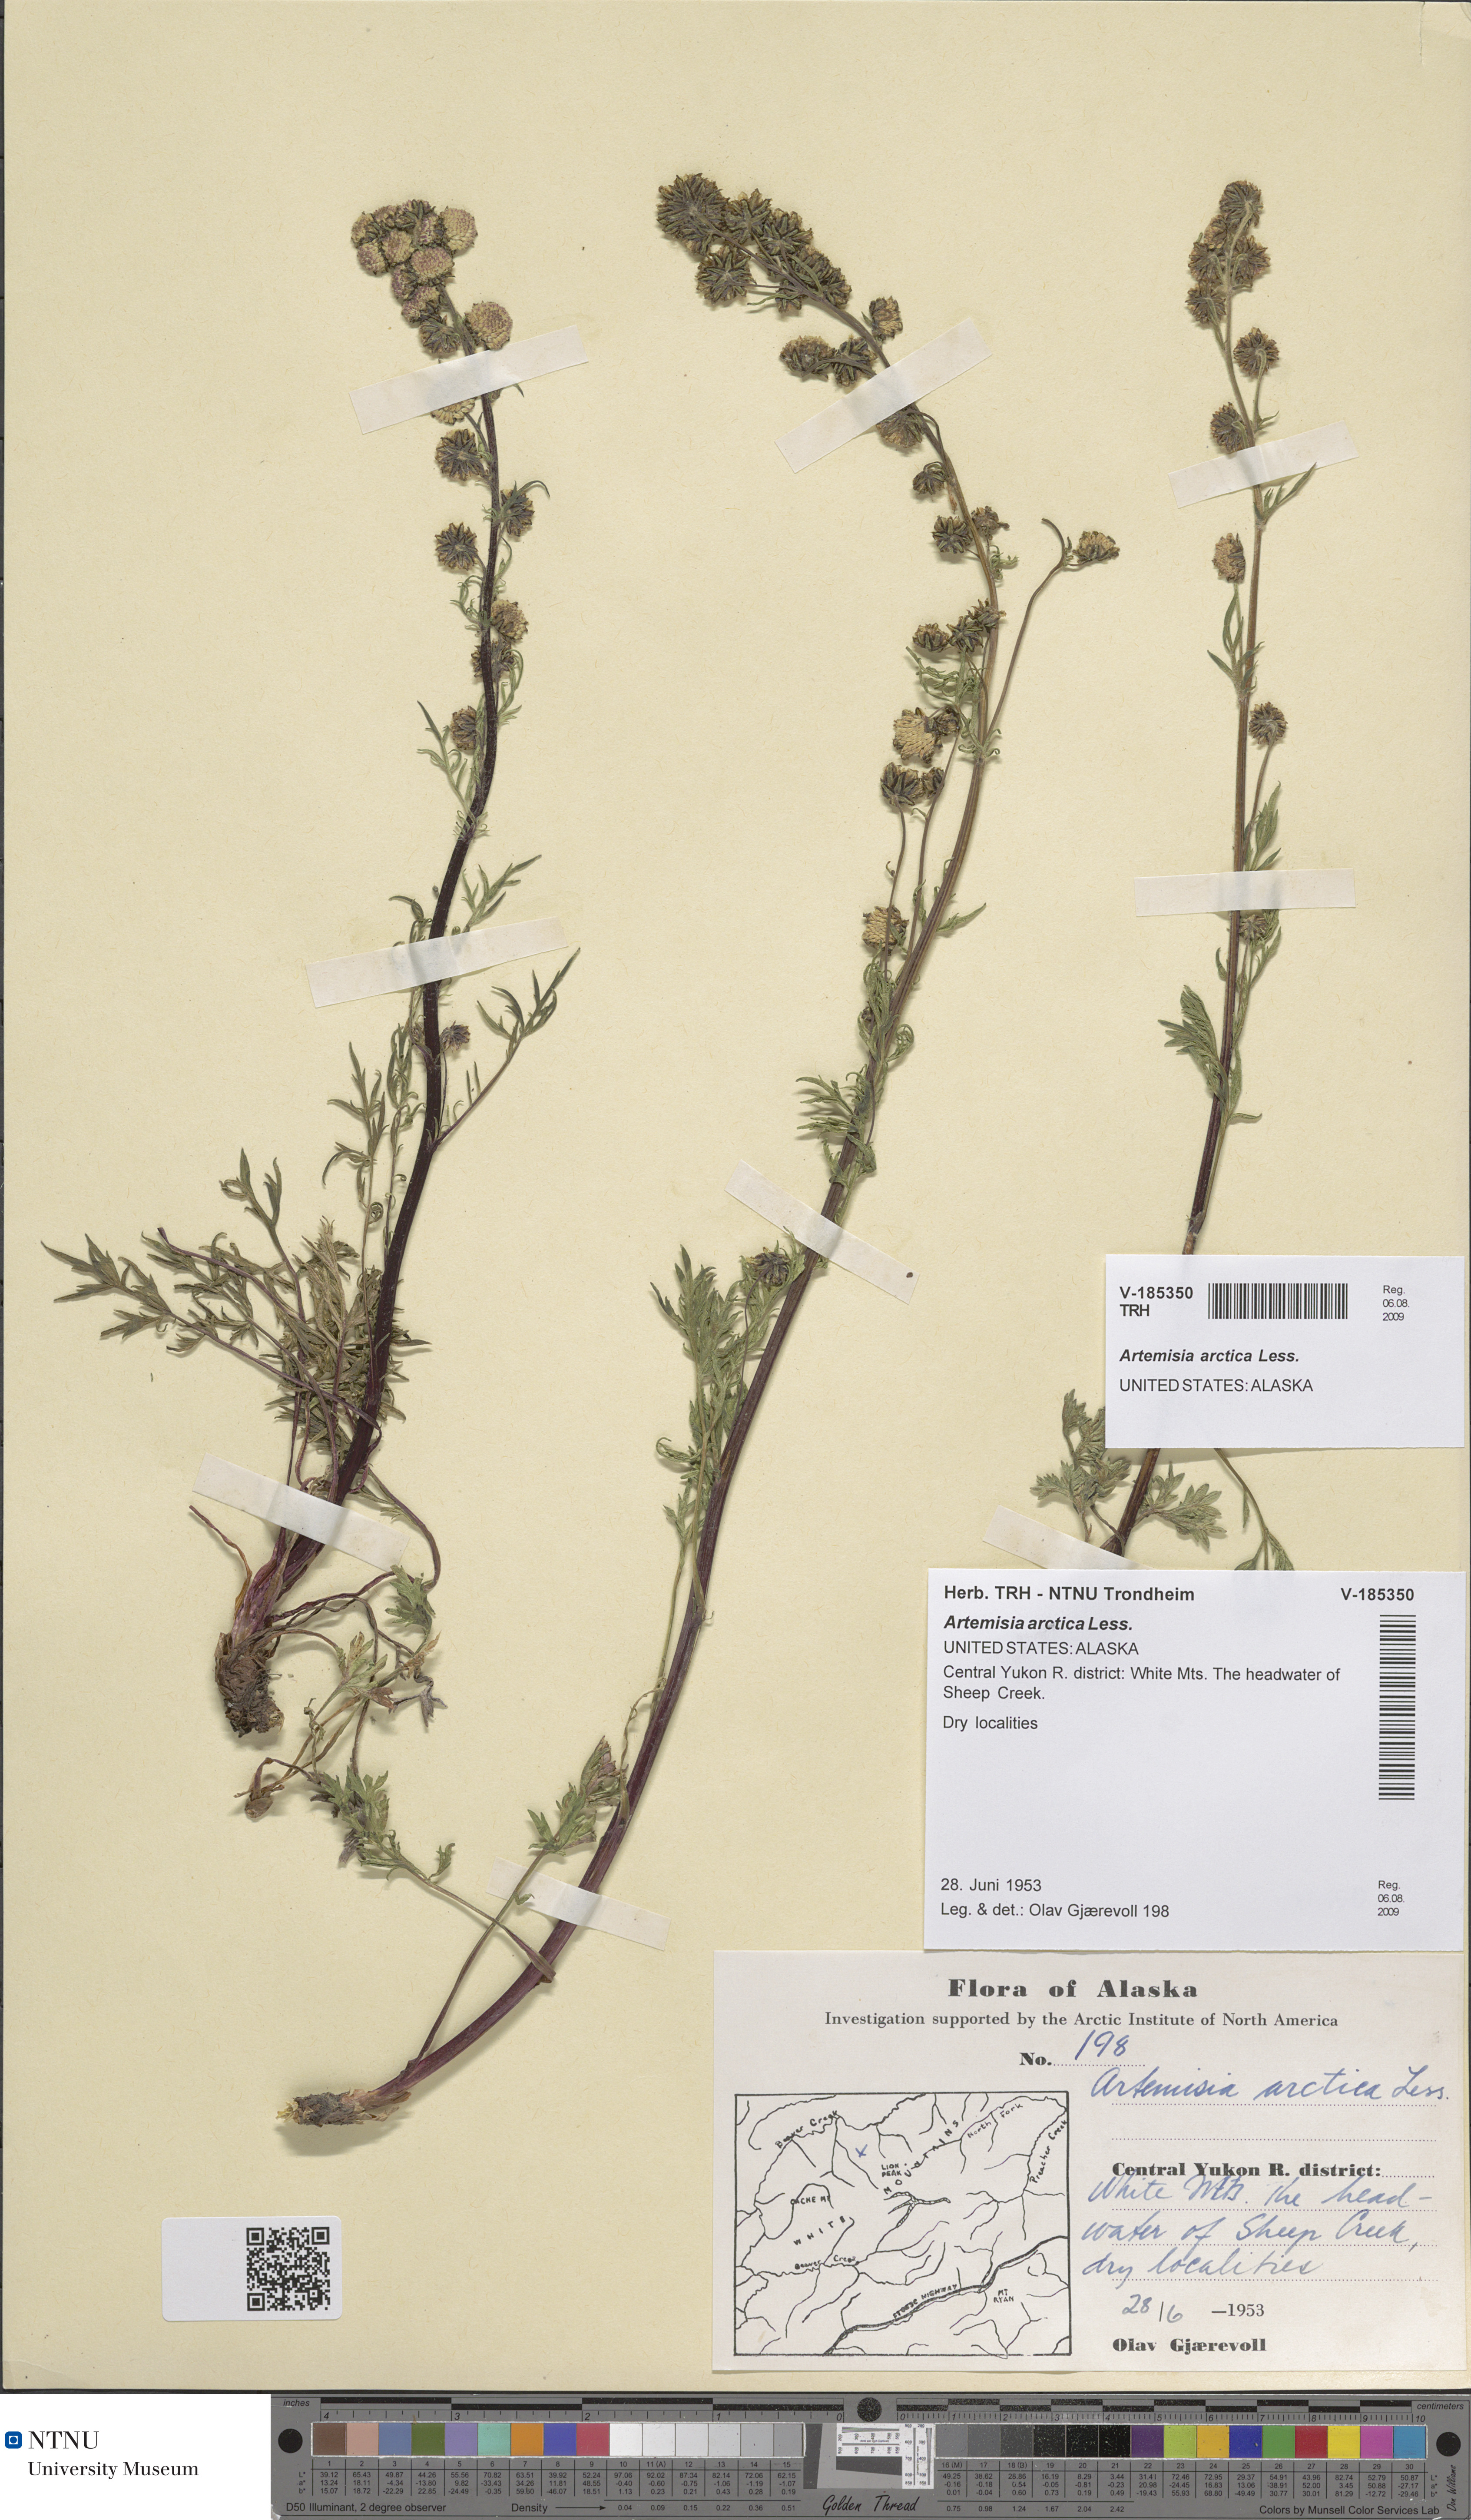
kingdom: Plantae
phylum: Tracheophyta
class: Magnoliopsida
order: Asterales
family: Asteraceae
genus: Artemisia
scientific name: Artemisia norvegica
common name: Norwegian mugwort
